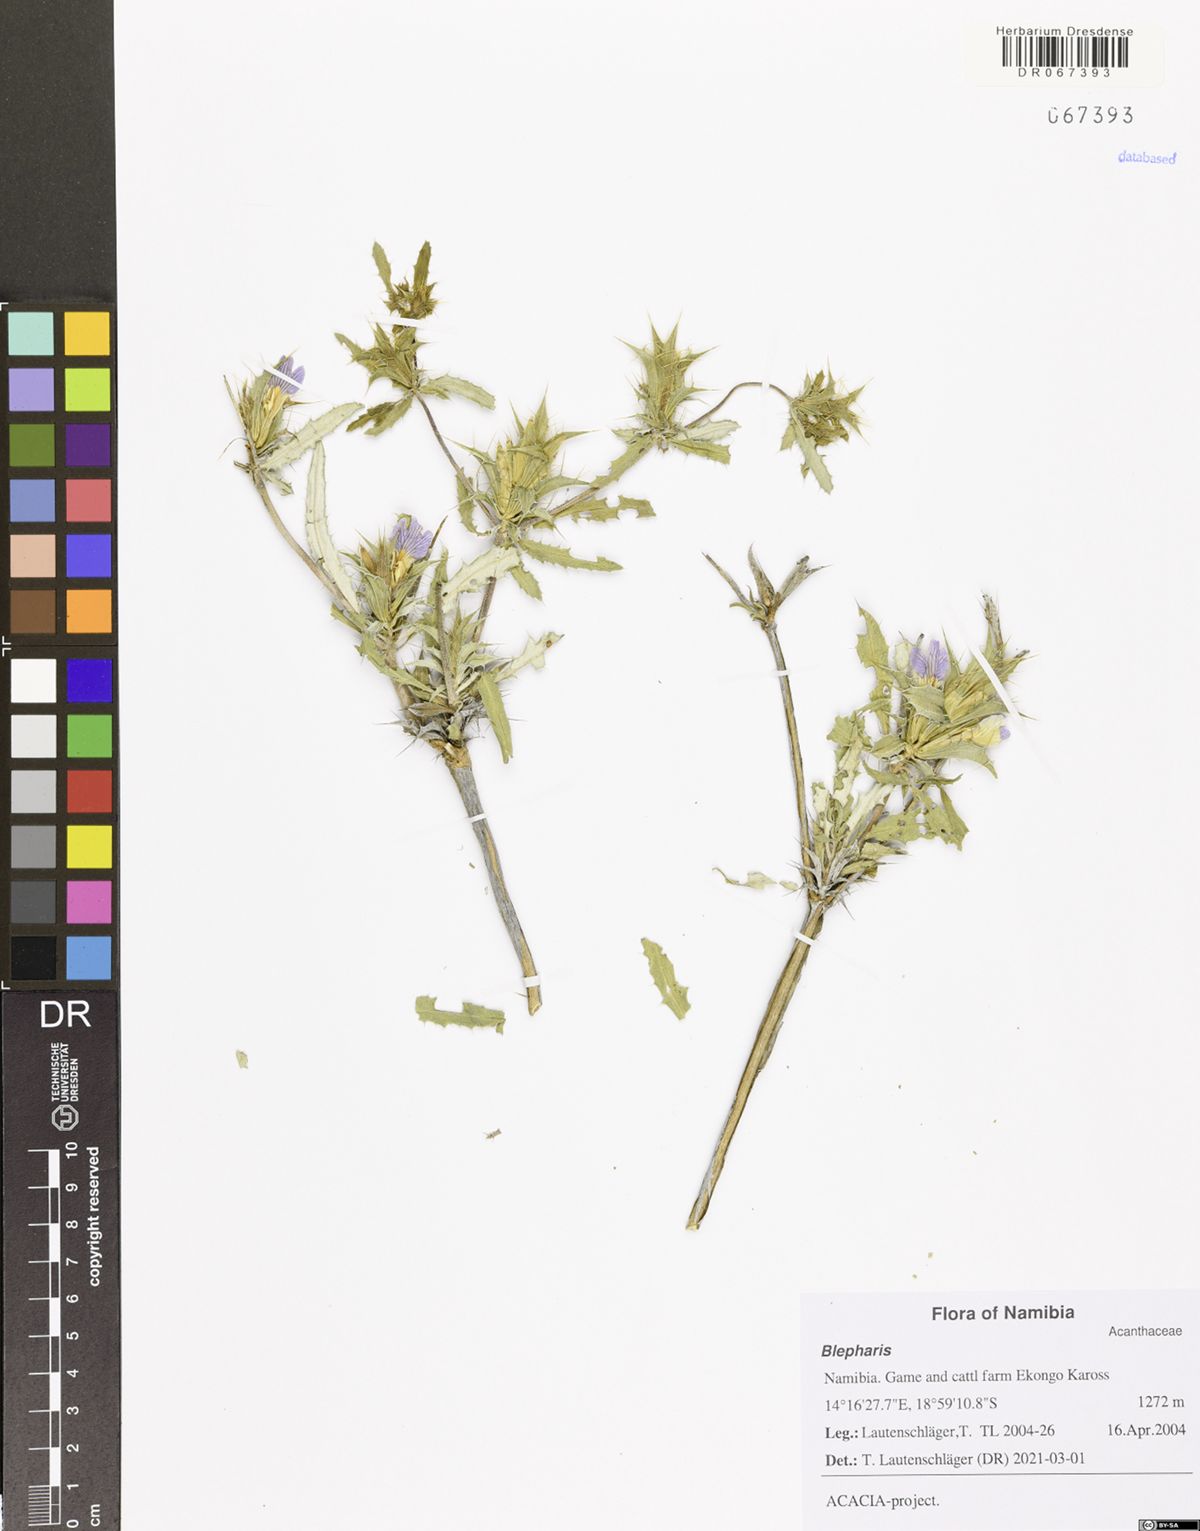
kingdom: Plantae
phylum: Tracheophyta
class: Magnoliopsida
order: Lamiales
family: Acanthaceae
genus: Blepharis
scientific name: Blepharis
